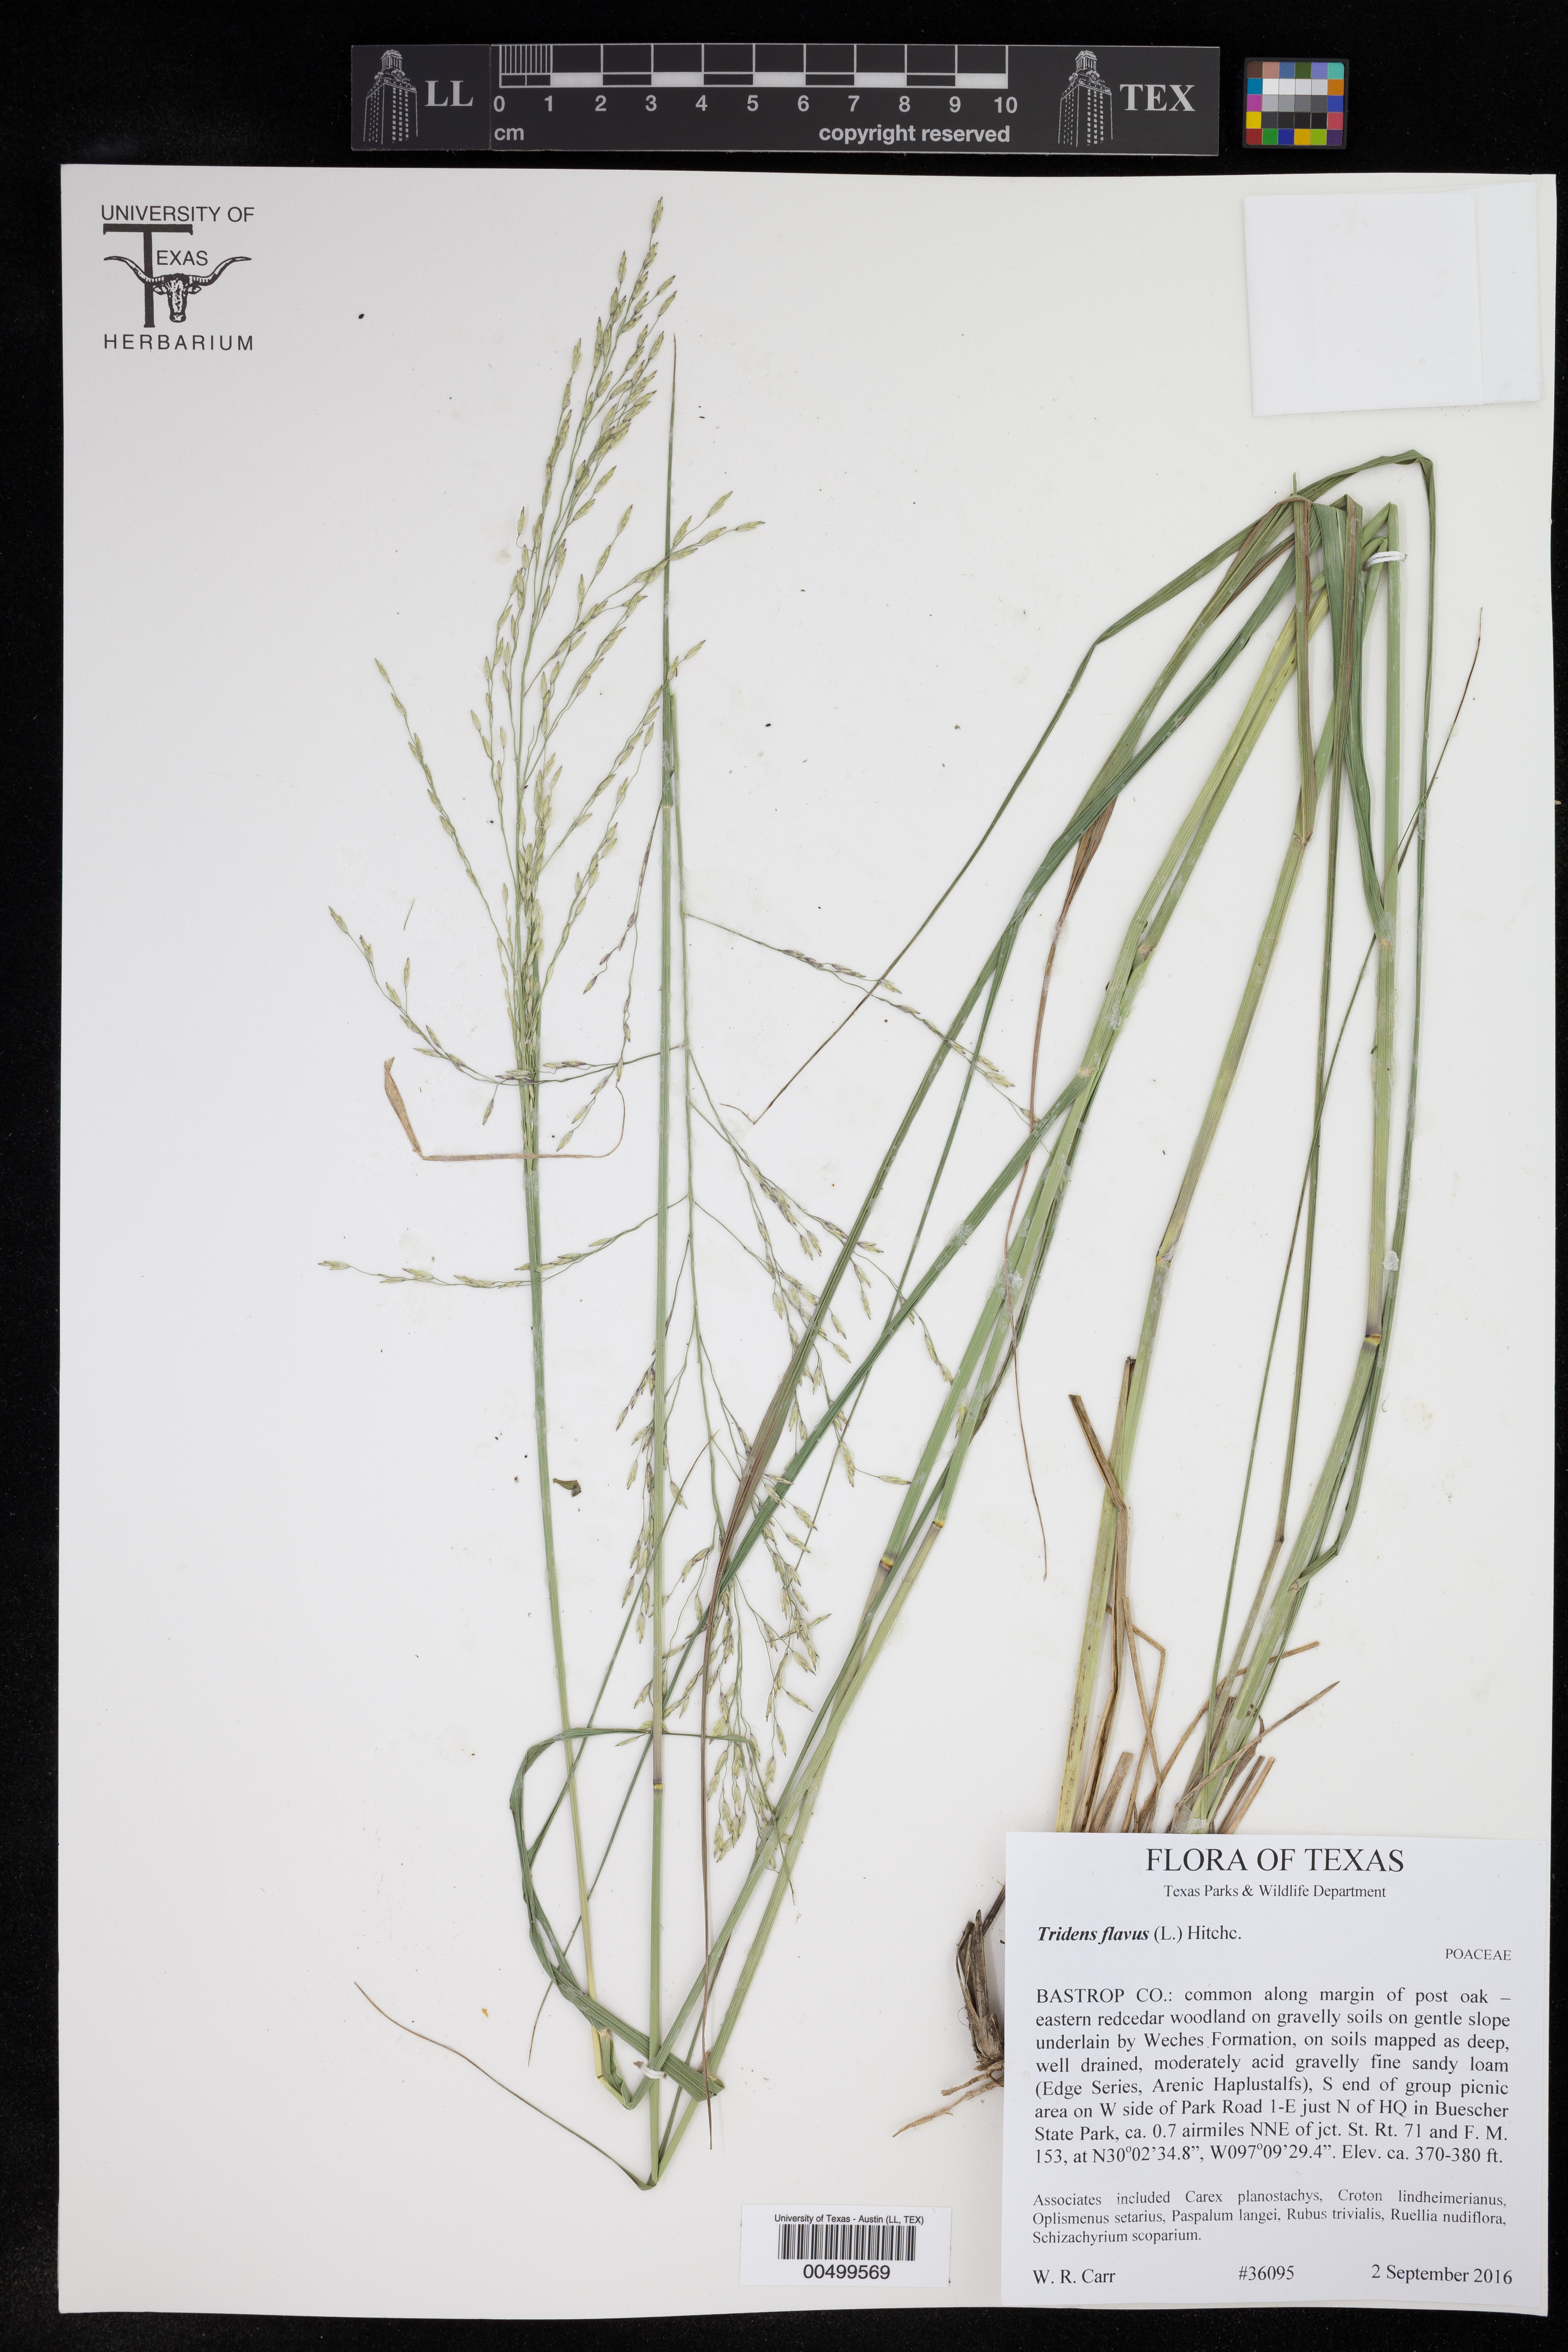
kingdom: Plantae
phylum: Tracheophyta
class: Liliopsida
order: Poales
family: Poaceae
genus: Tridens
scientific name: Tridens flavus
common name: Purpletop
